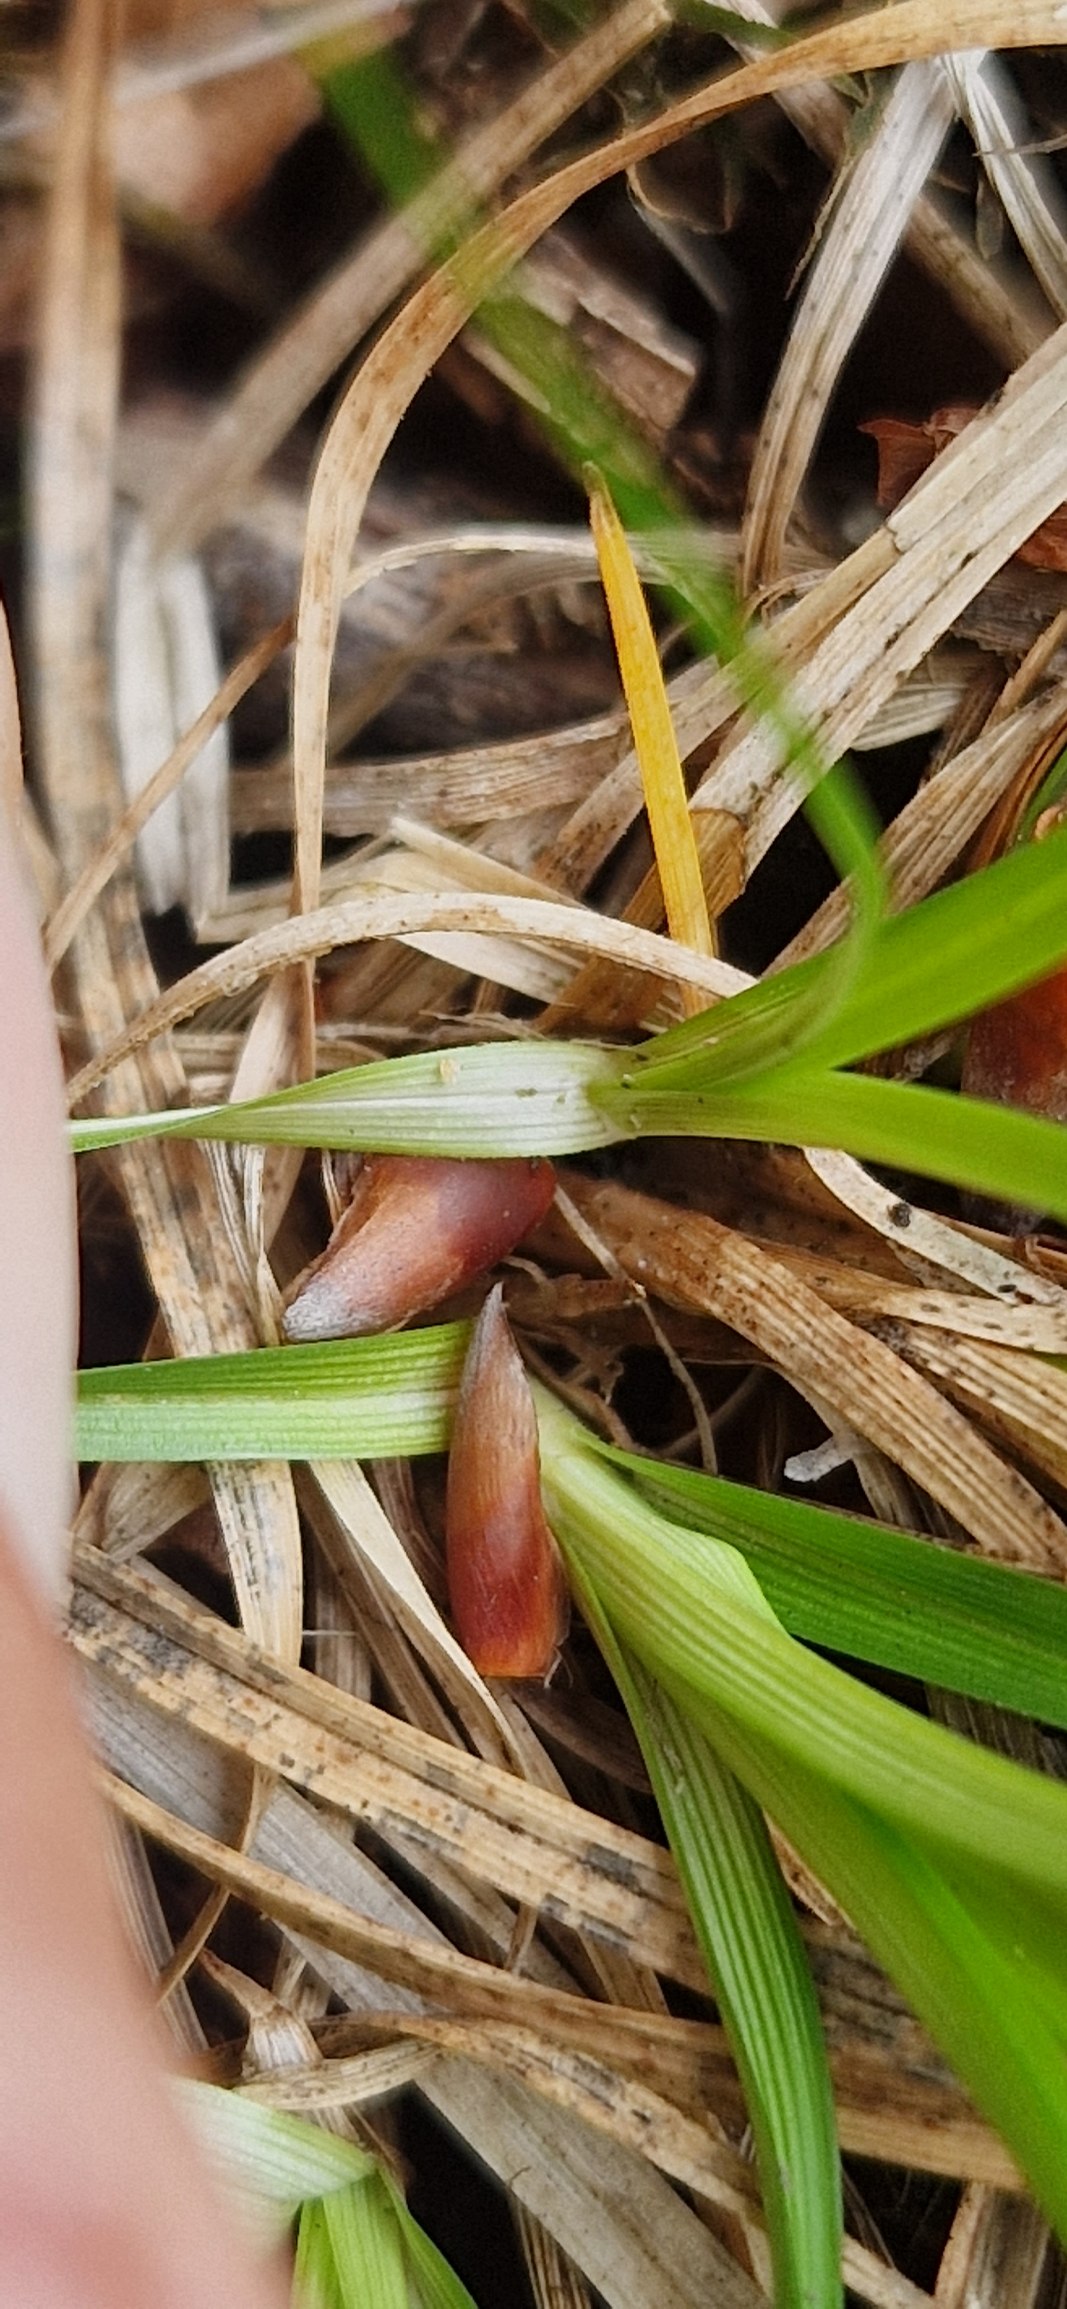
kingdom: Plantae
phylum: Tracheophyta
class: Liliopsida
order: Poales
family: Cyperaceae
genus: Carex
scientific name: Carex pilulifera
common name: Pille-star
